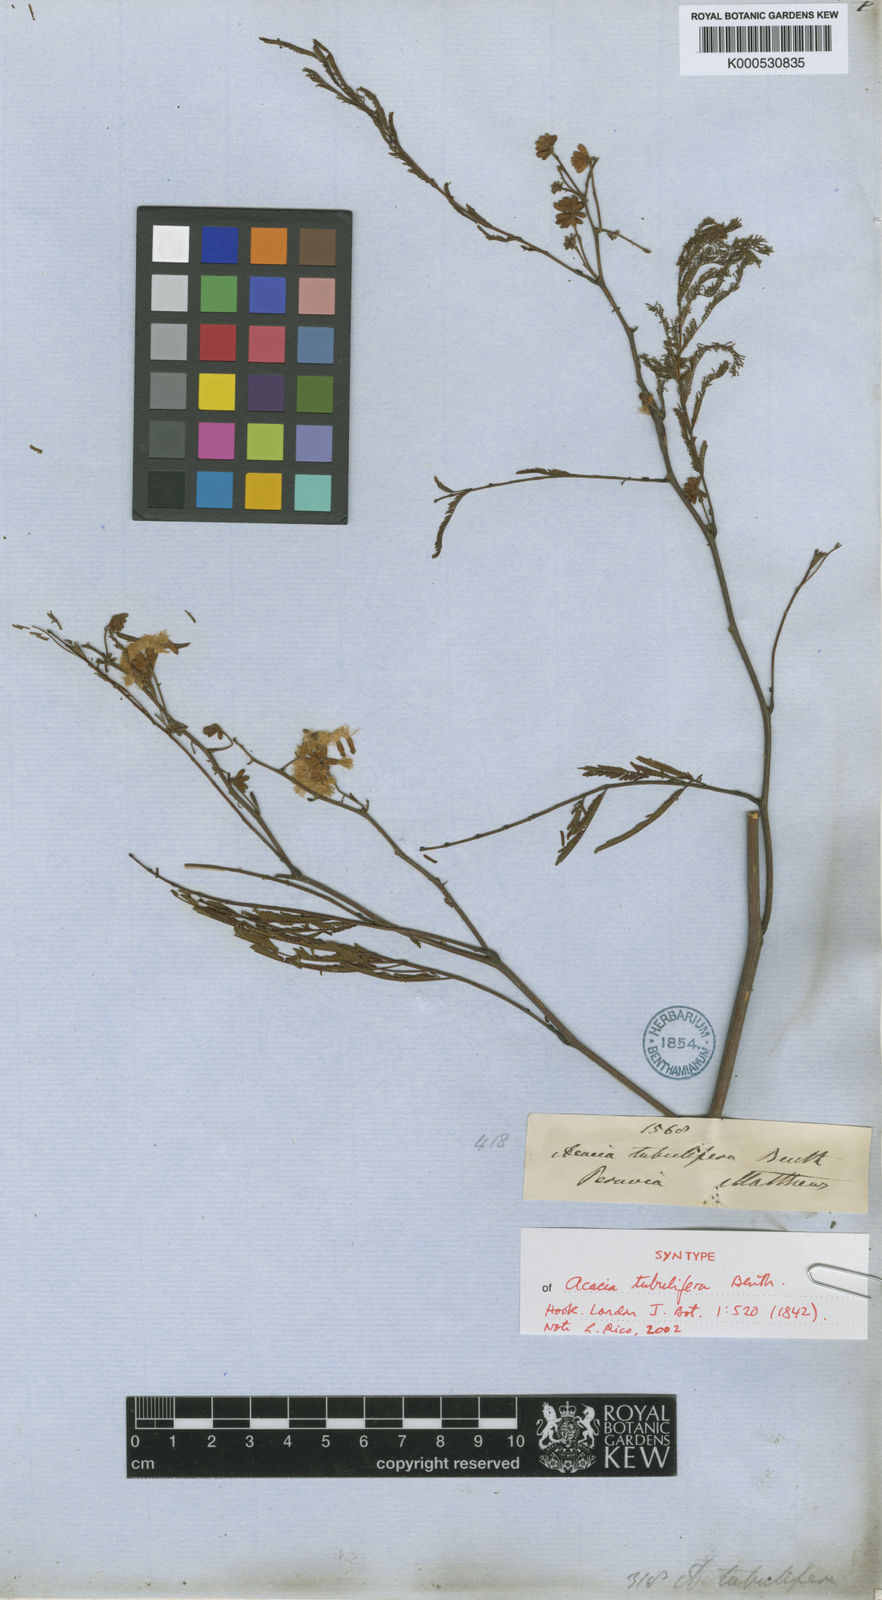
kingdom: Plantae
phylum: Tracheophyta
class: Magnoliopsida
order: Fabales
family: Fabaceae
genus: Senegalia
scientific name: Senegalia tubulifera
